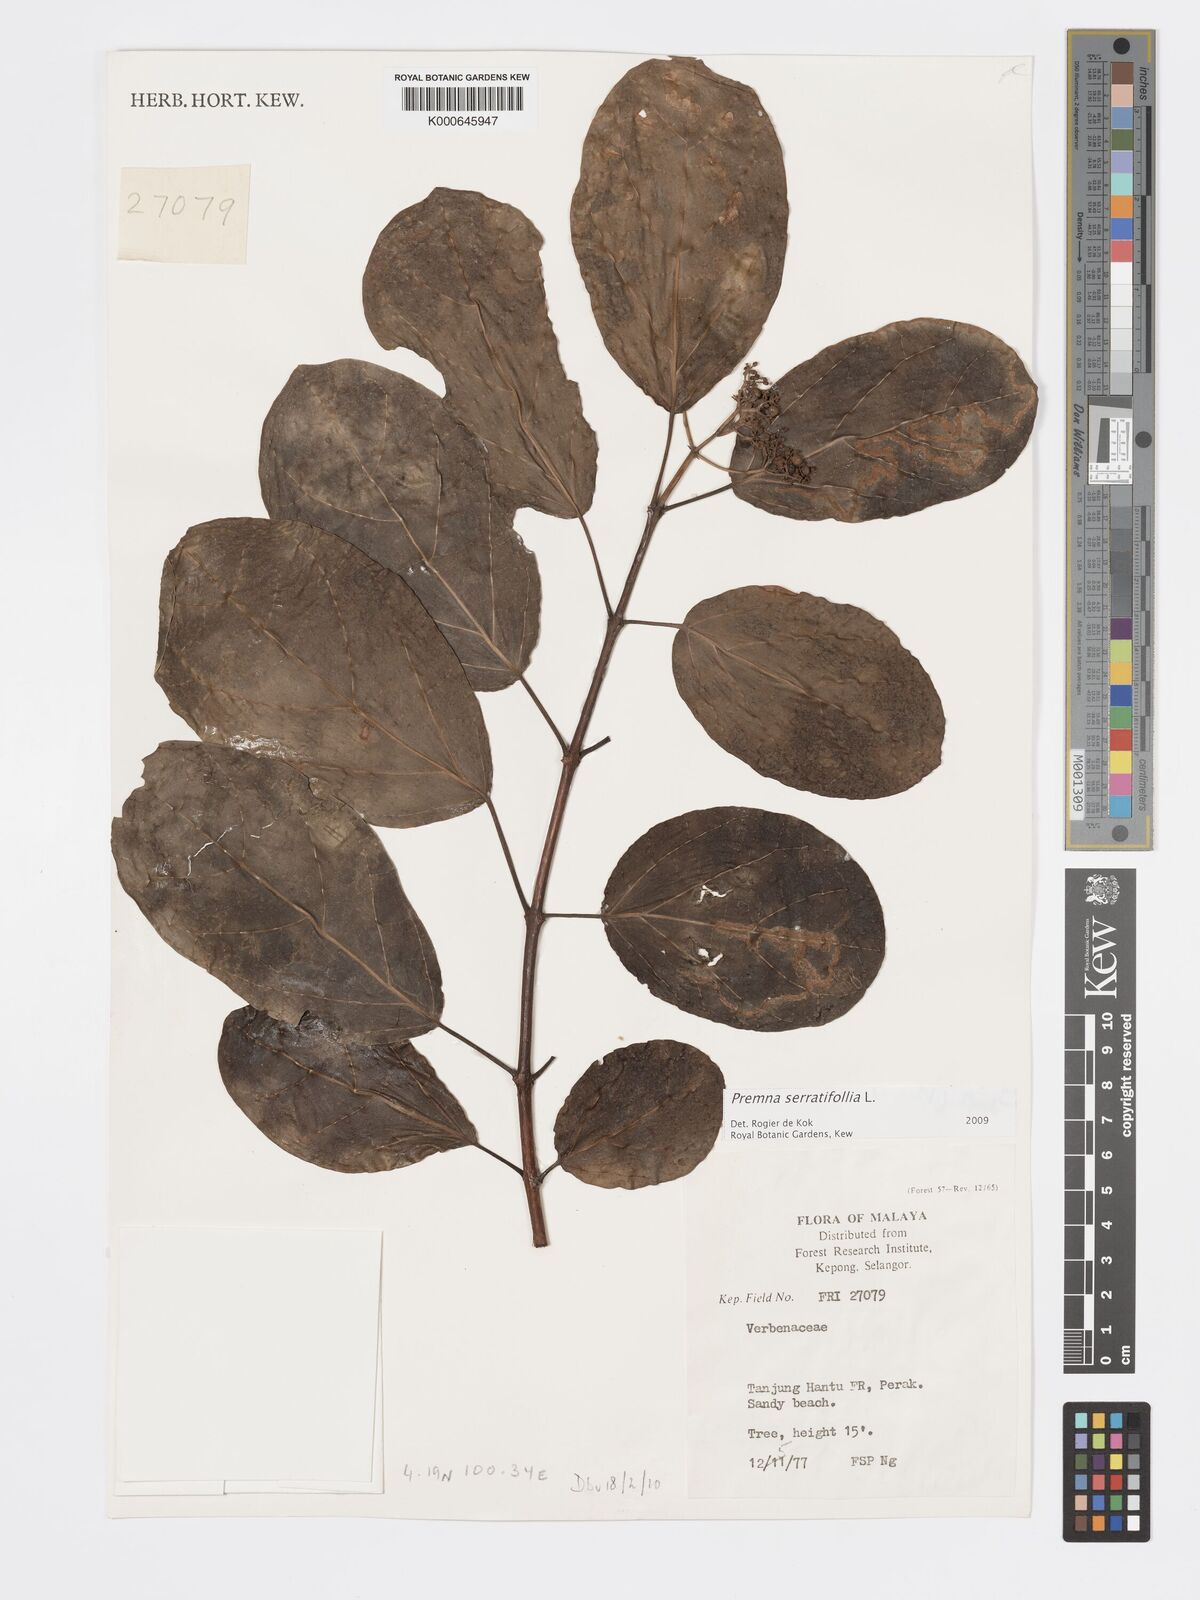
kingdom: Plantae
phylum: Tracheophyta
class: Magnoliopsida
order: Lamiales
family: Lamiaceae
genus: Premna
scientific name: Premna serratifolia
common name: Bastard guelder
